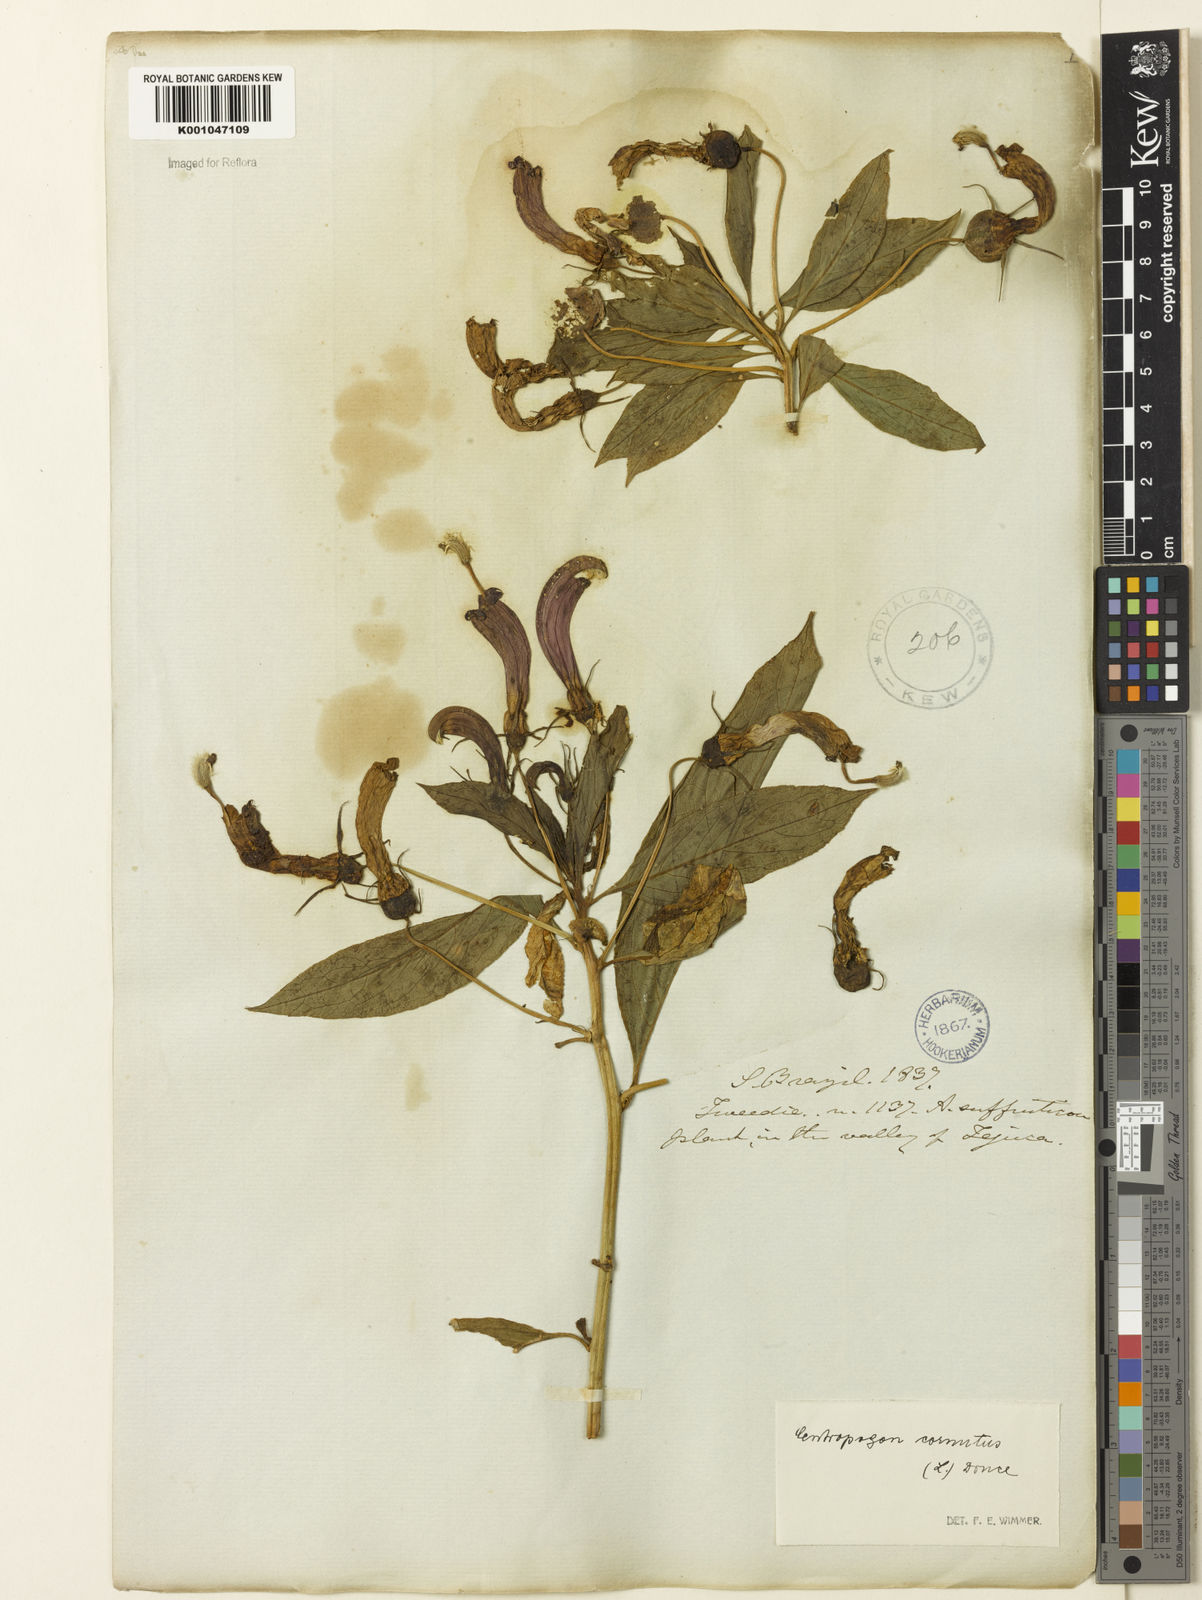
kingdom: Plantae
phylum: Tracheophyta
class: Magnoliopsida
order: Asterales
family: Campanulaceae
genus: Centropogon
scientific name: Centropogon cornutus
